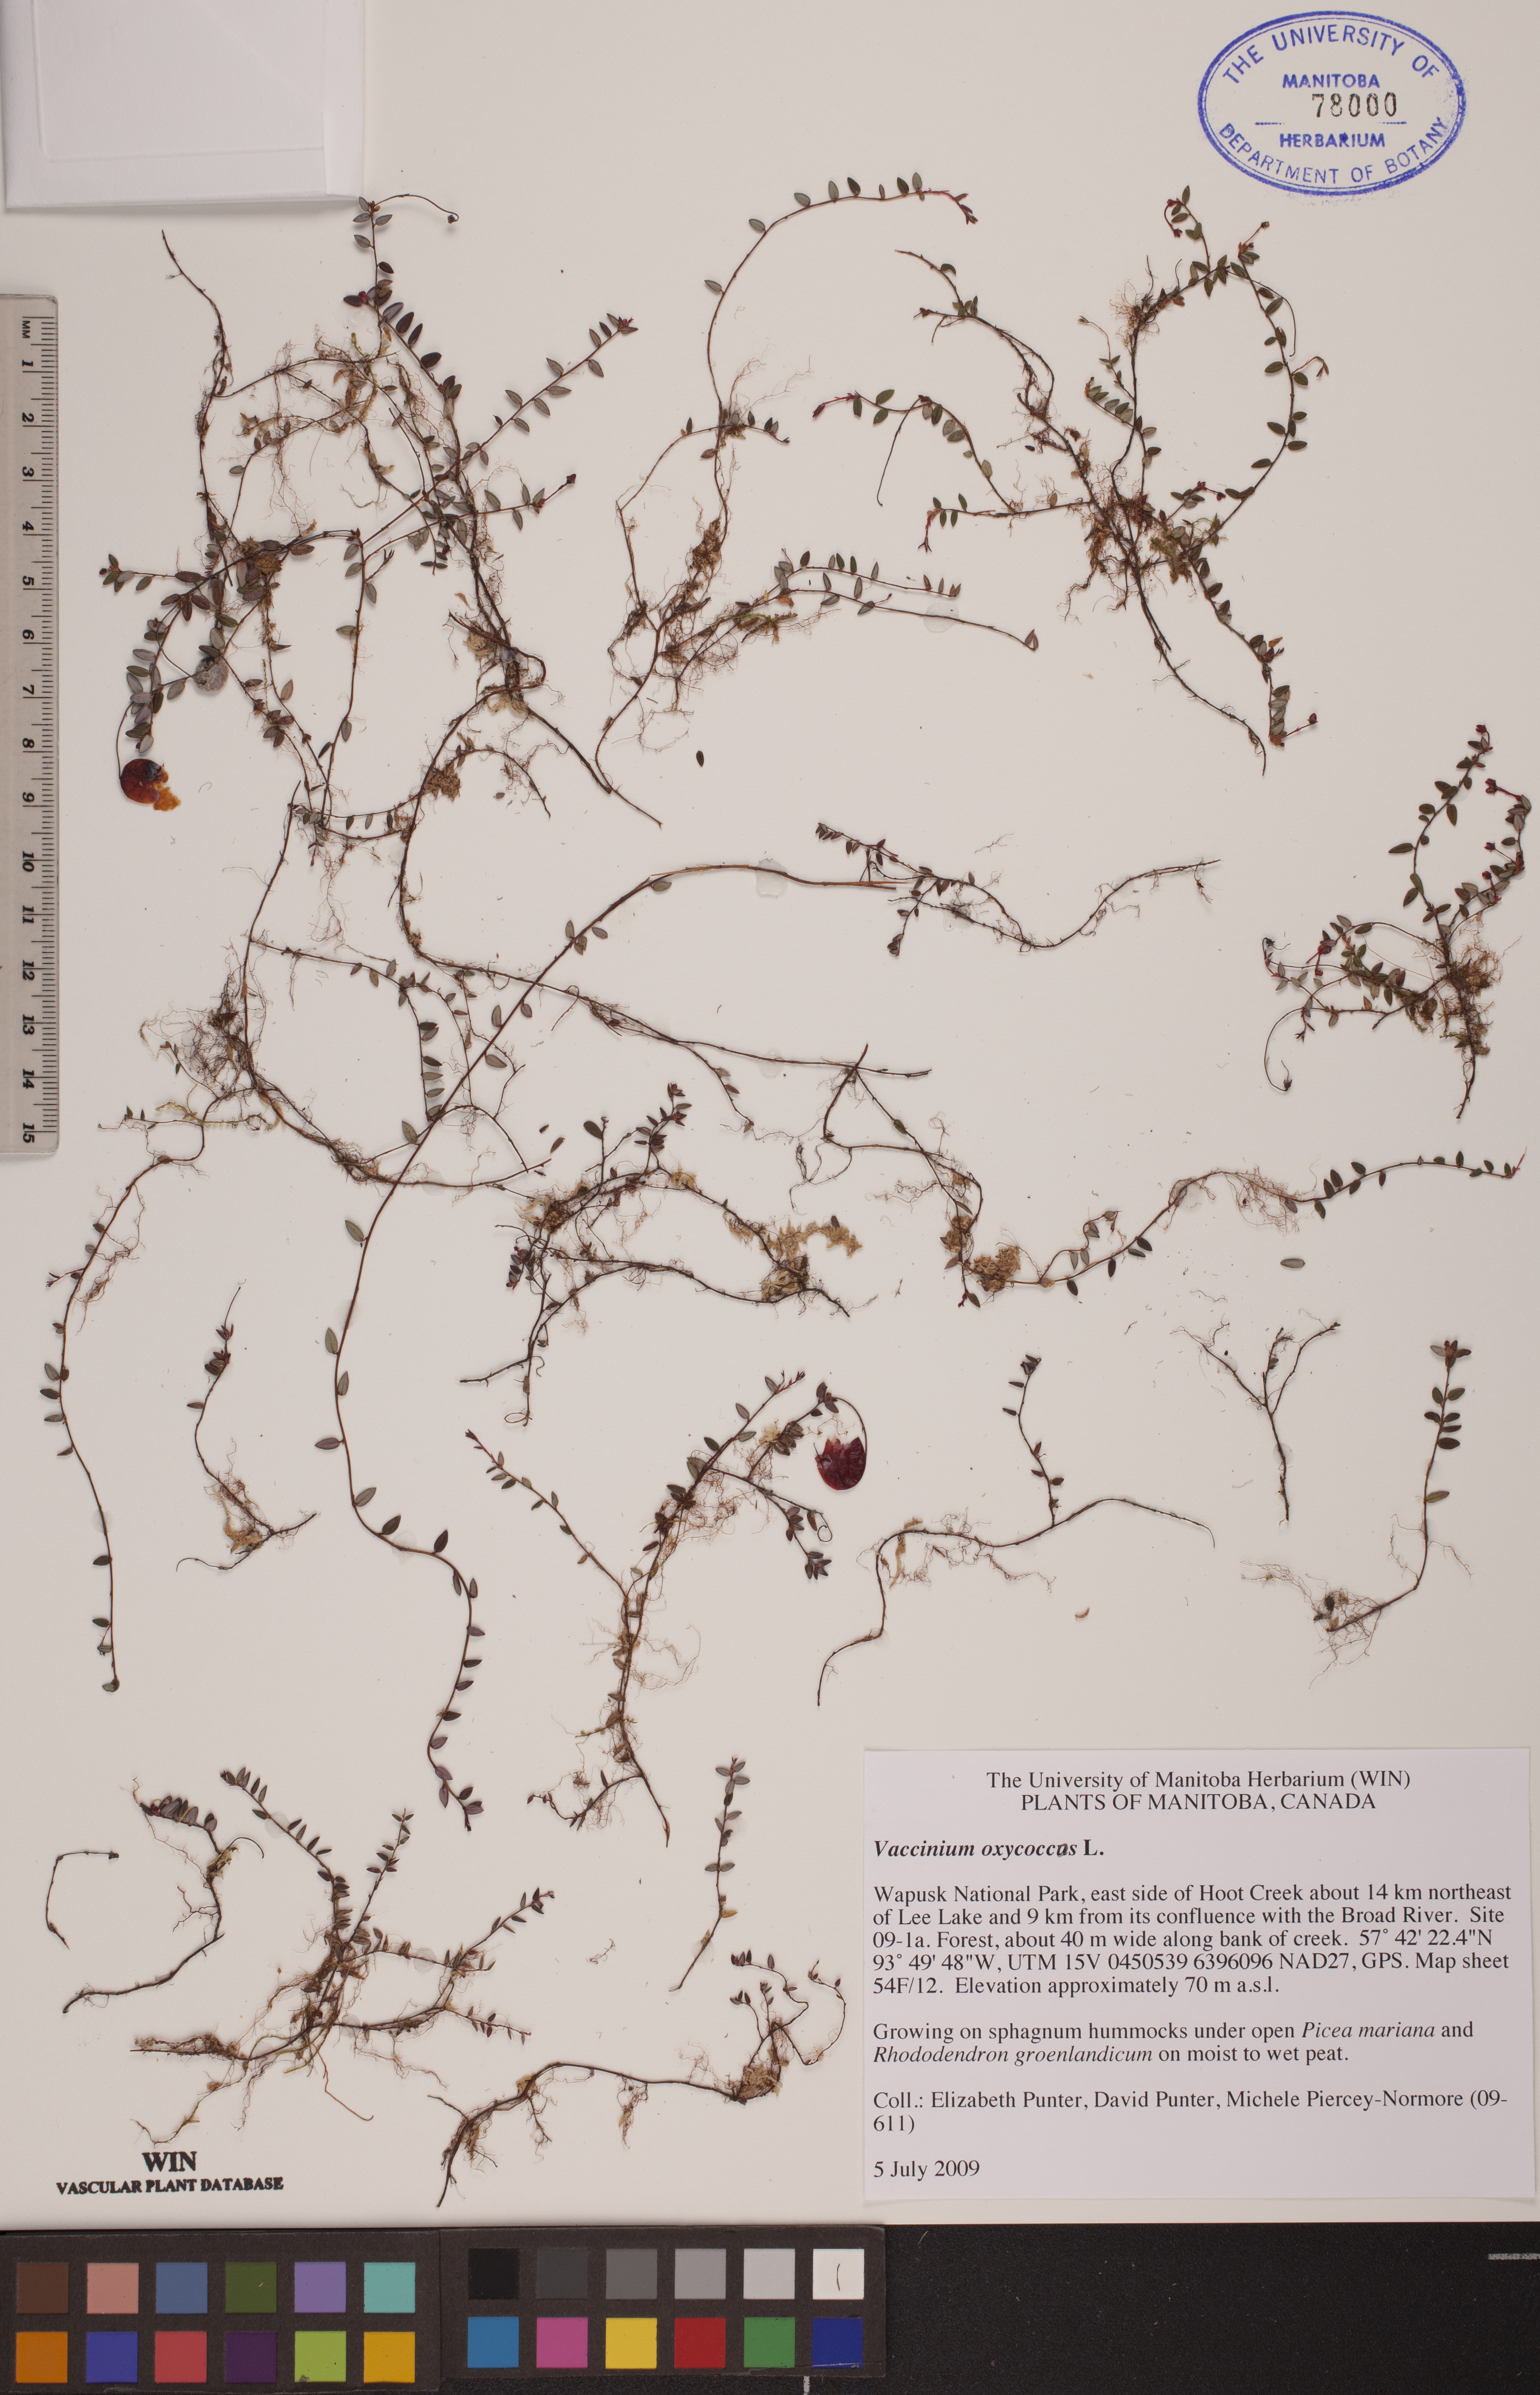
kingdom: Plantae
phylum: Tracheophyta
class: Magnoliopsida
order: Ericales
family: Ericaceae
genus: Vaccinium
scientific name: Vaccinium oxycoccos
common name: Cranberry
